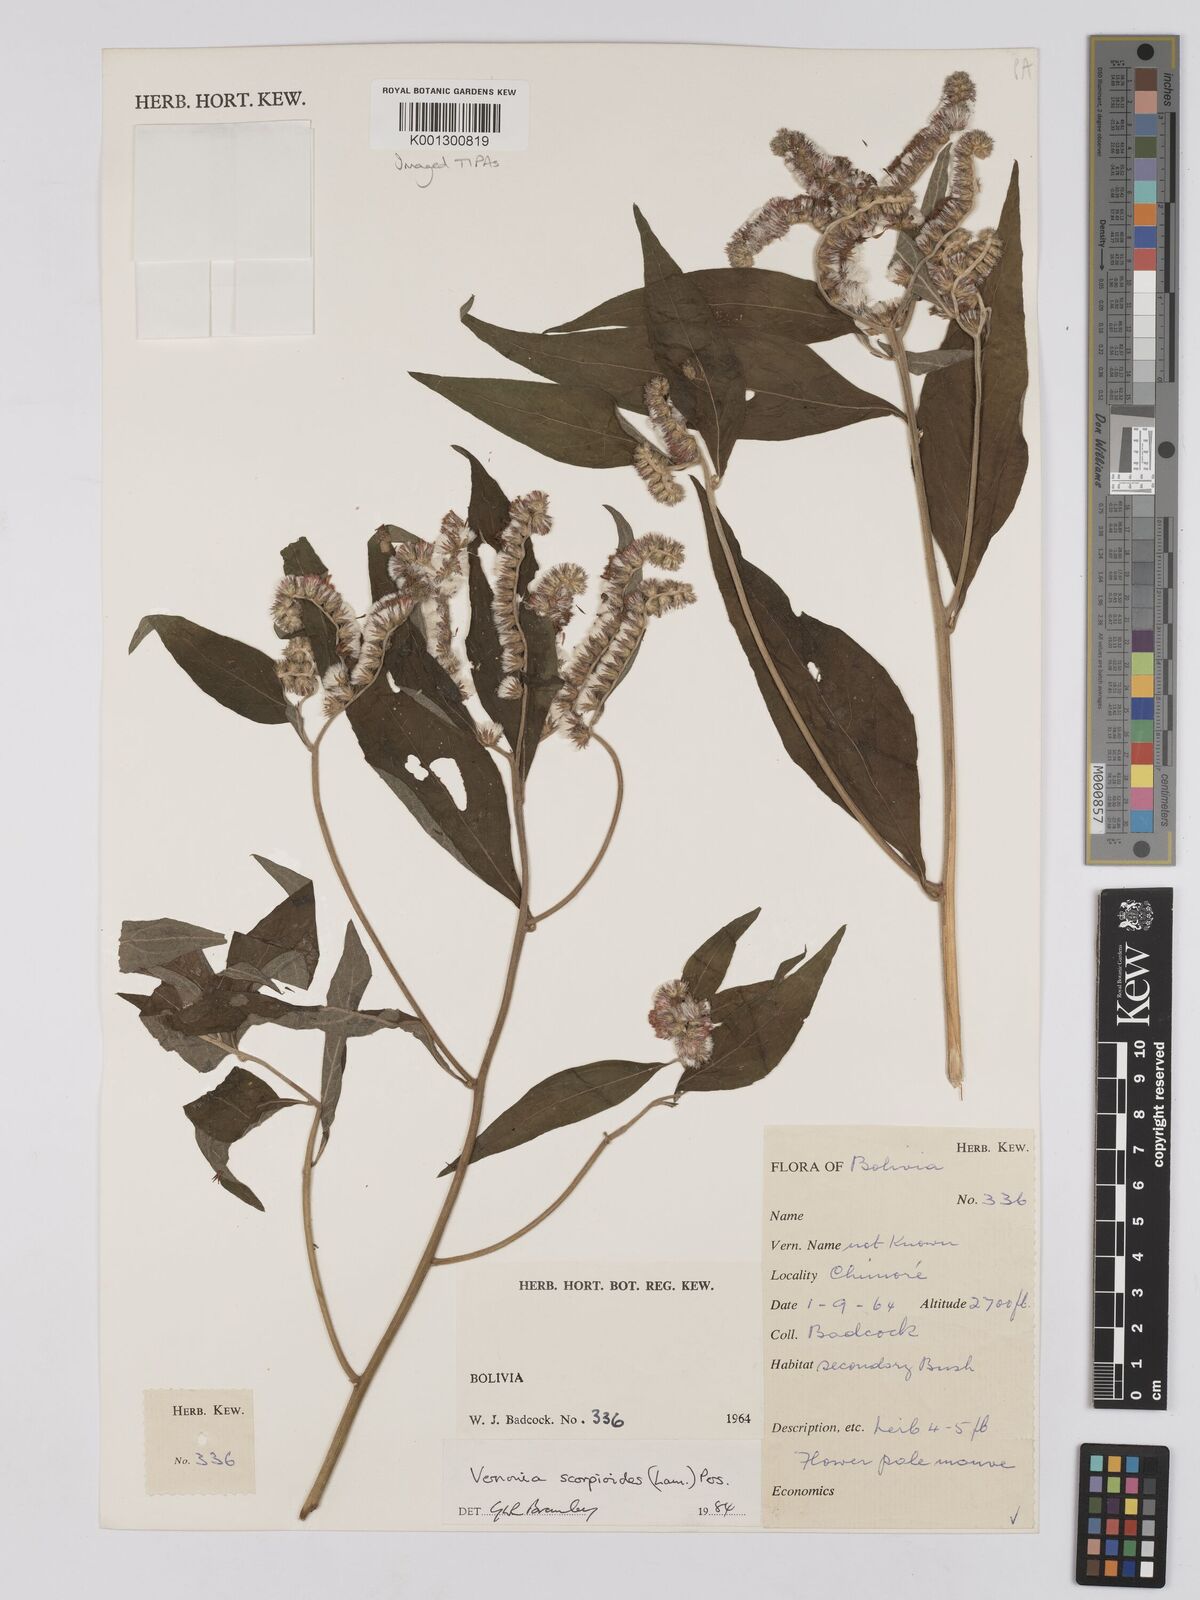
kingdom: Plantae
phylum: Tracheophyta
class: Magnoliopsida
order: Asterales
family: Asteraceae
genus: Cyrtocymura
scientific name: Cyrtocymura scorpioides
